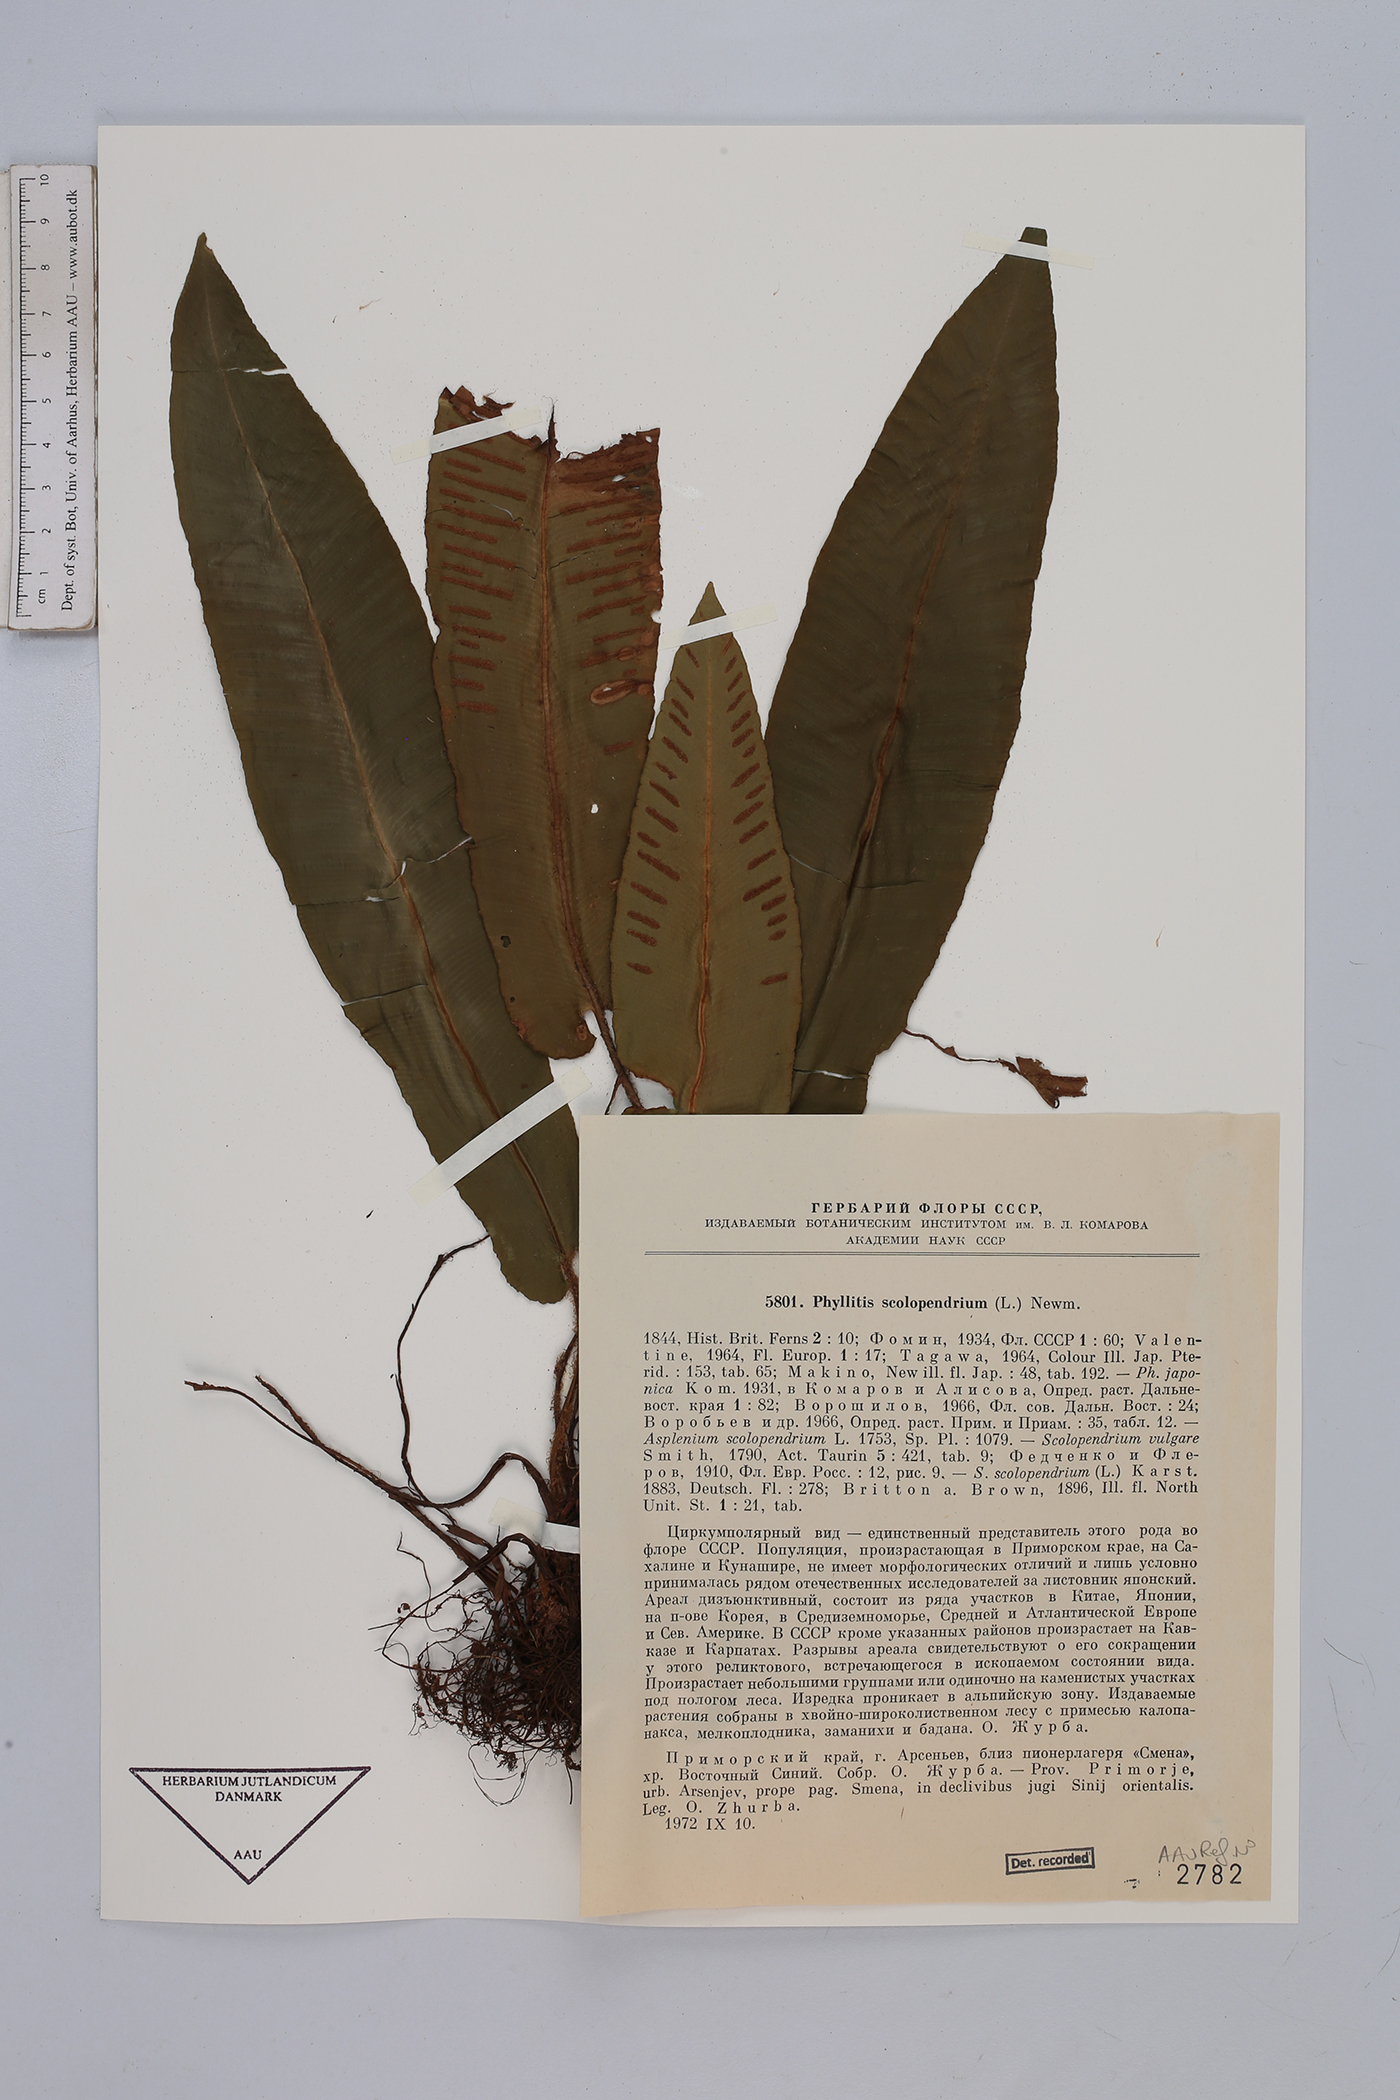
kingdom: Plantae
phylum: Tracheophyta
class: Polypodiopsida
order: Polypodiales
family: Aspleniaceae
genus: Asplenium
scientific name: Asplenium scolopendrium
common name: Hart's-tongue fern
